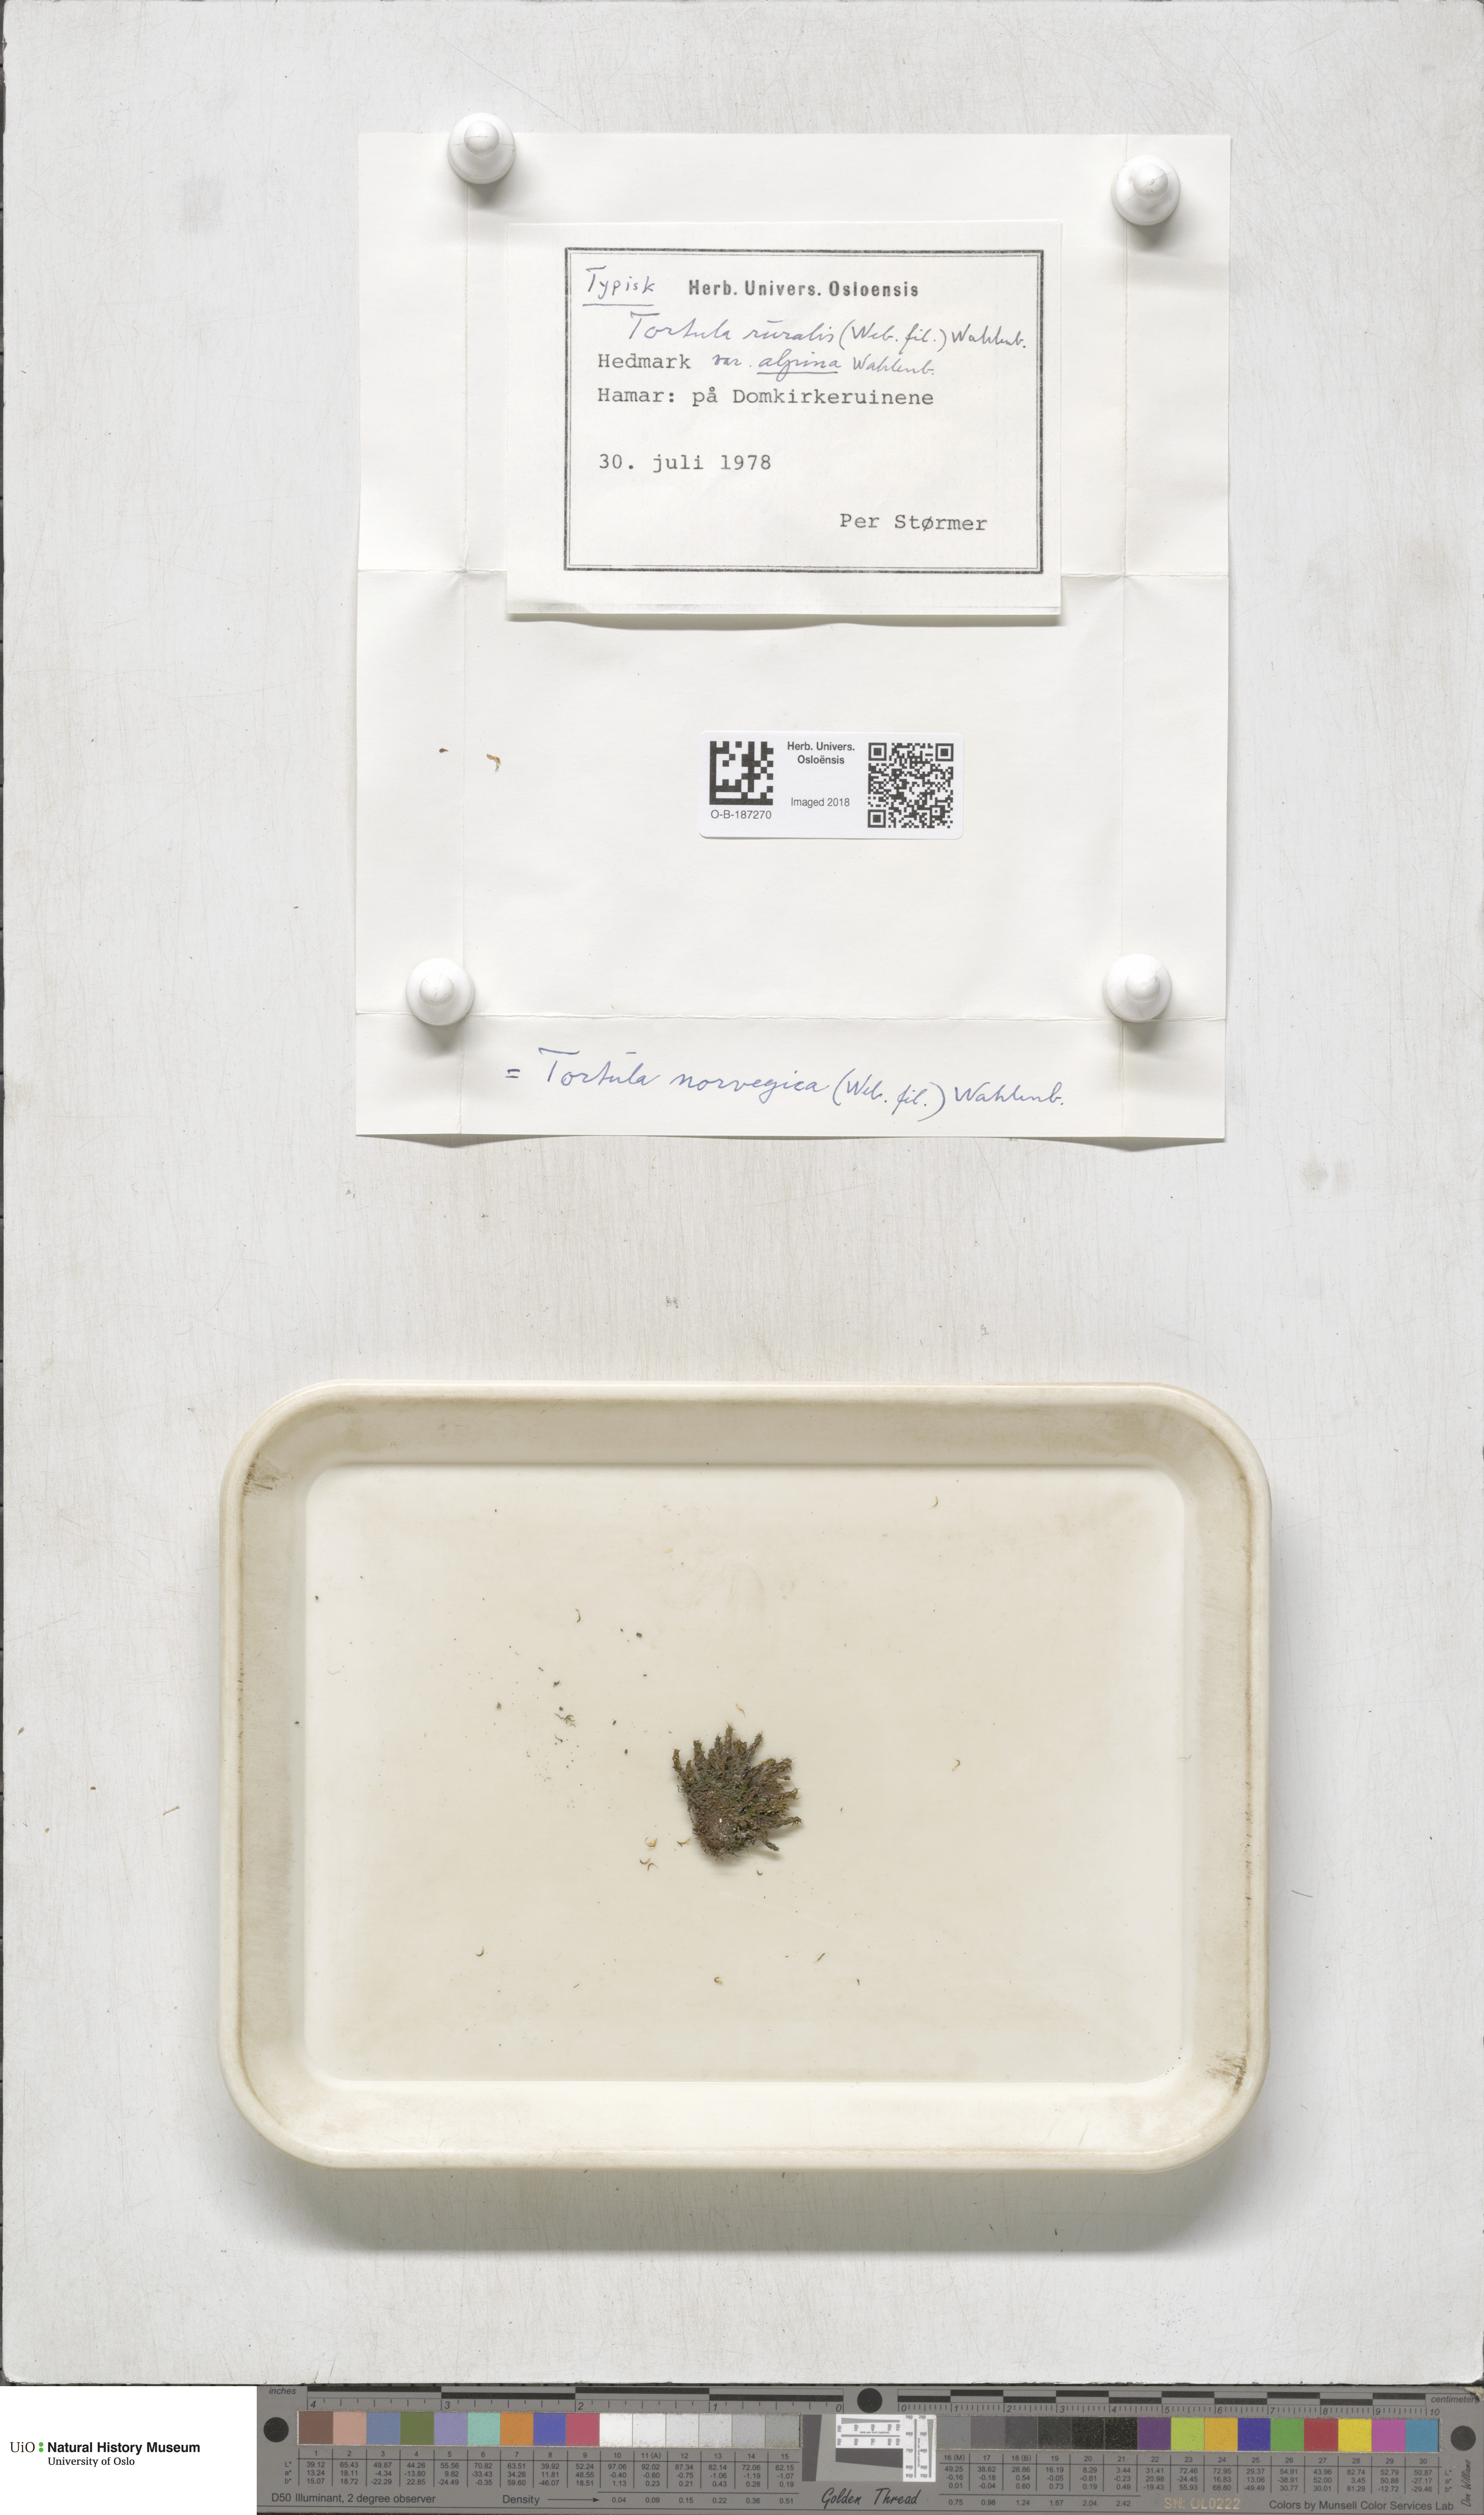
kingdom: Plantae
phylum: Bryophyta
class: Bryopsida
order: Pottiales
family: Pottiaceae
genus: Syntrichia
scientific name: Syntrichia norvegica
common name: Norway screw moss
